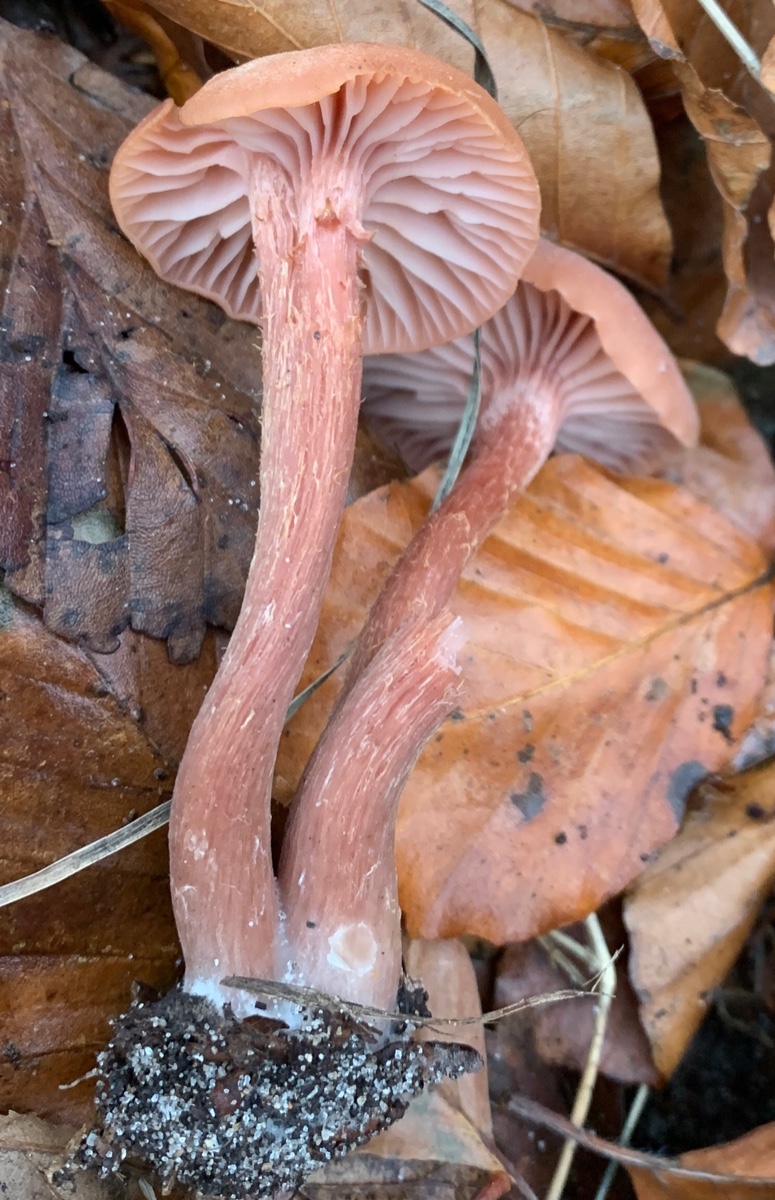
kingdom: Fungi
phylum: Basidiomycota
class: Agaricomycetes
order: Agaricales
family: Hydnangiaceae
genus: Laccaria
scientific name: Laccaria proxima
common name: stor ametysthat
